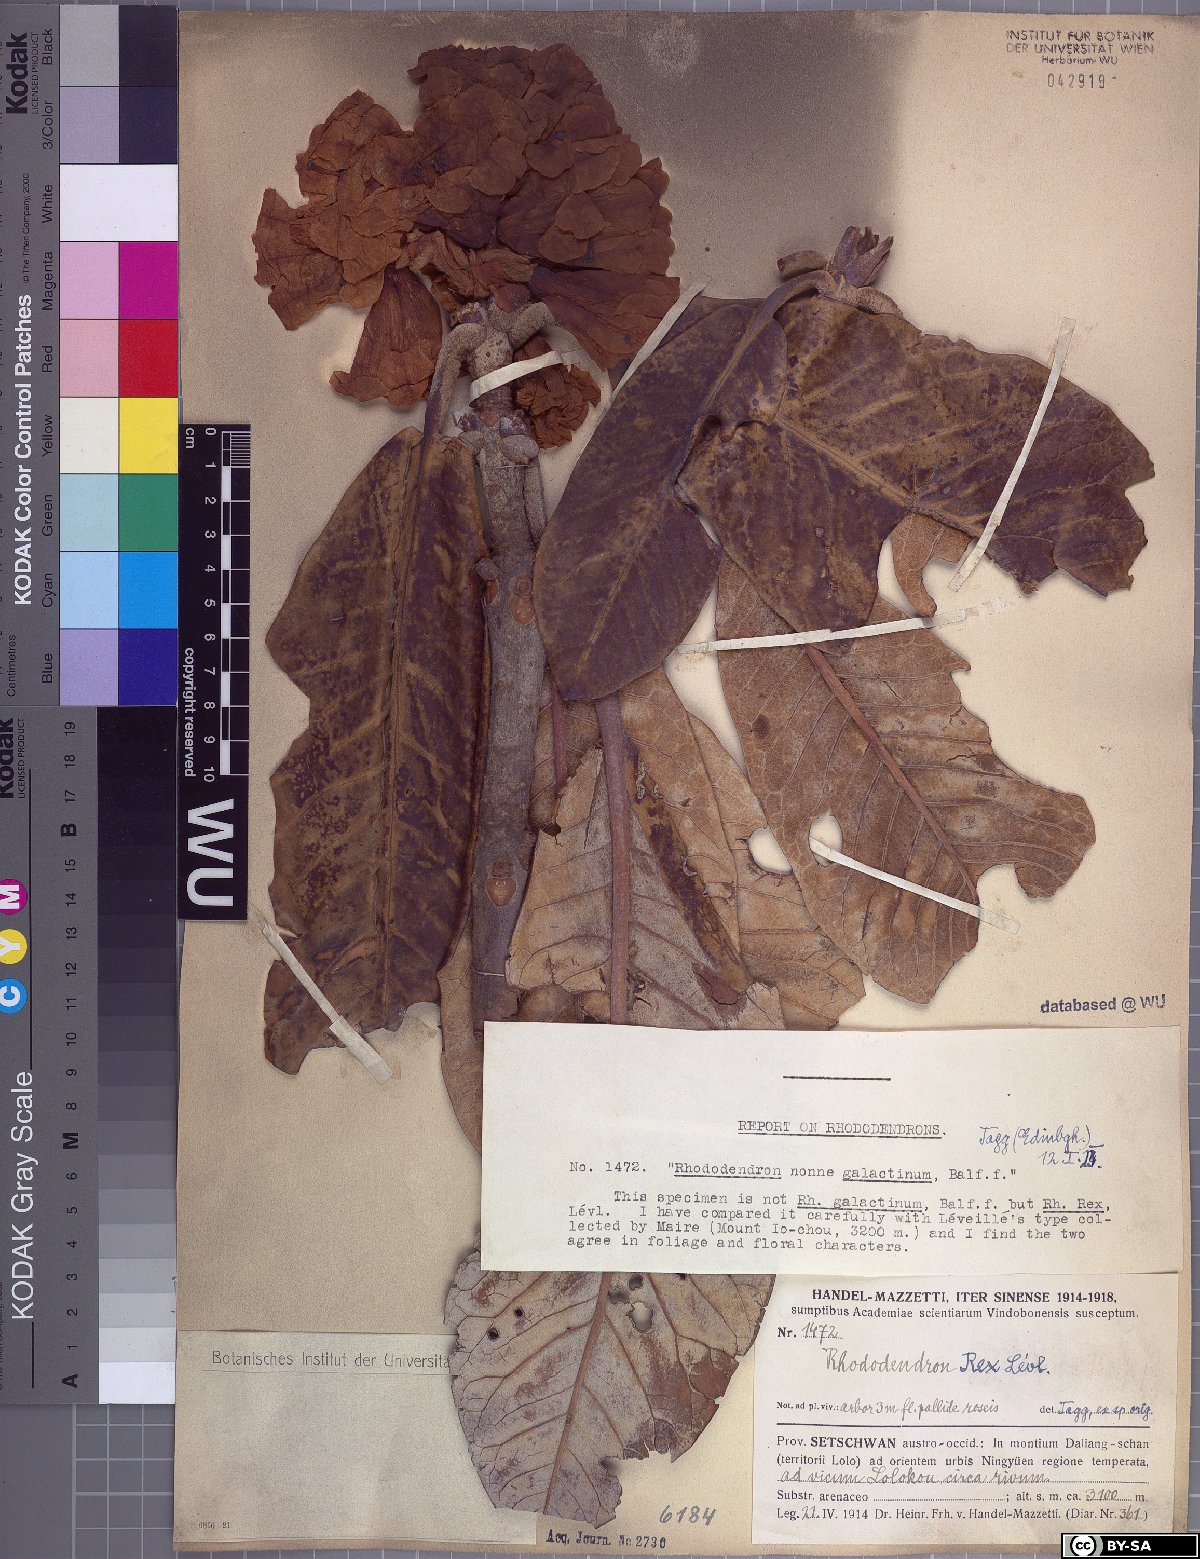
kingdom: Plantae
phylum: Tracheophyta
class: Magnoliopsida
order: Ericales
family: Ericaceae
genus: Rhododendron
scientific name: Rhododendron rex
